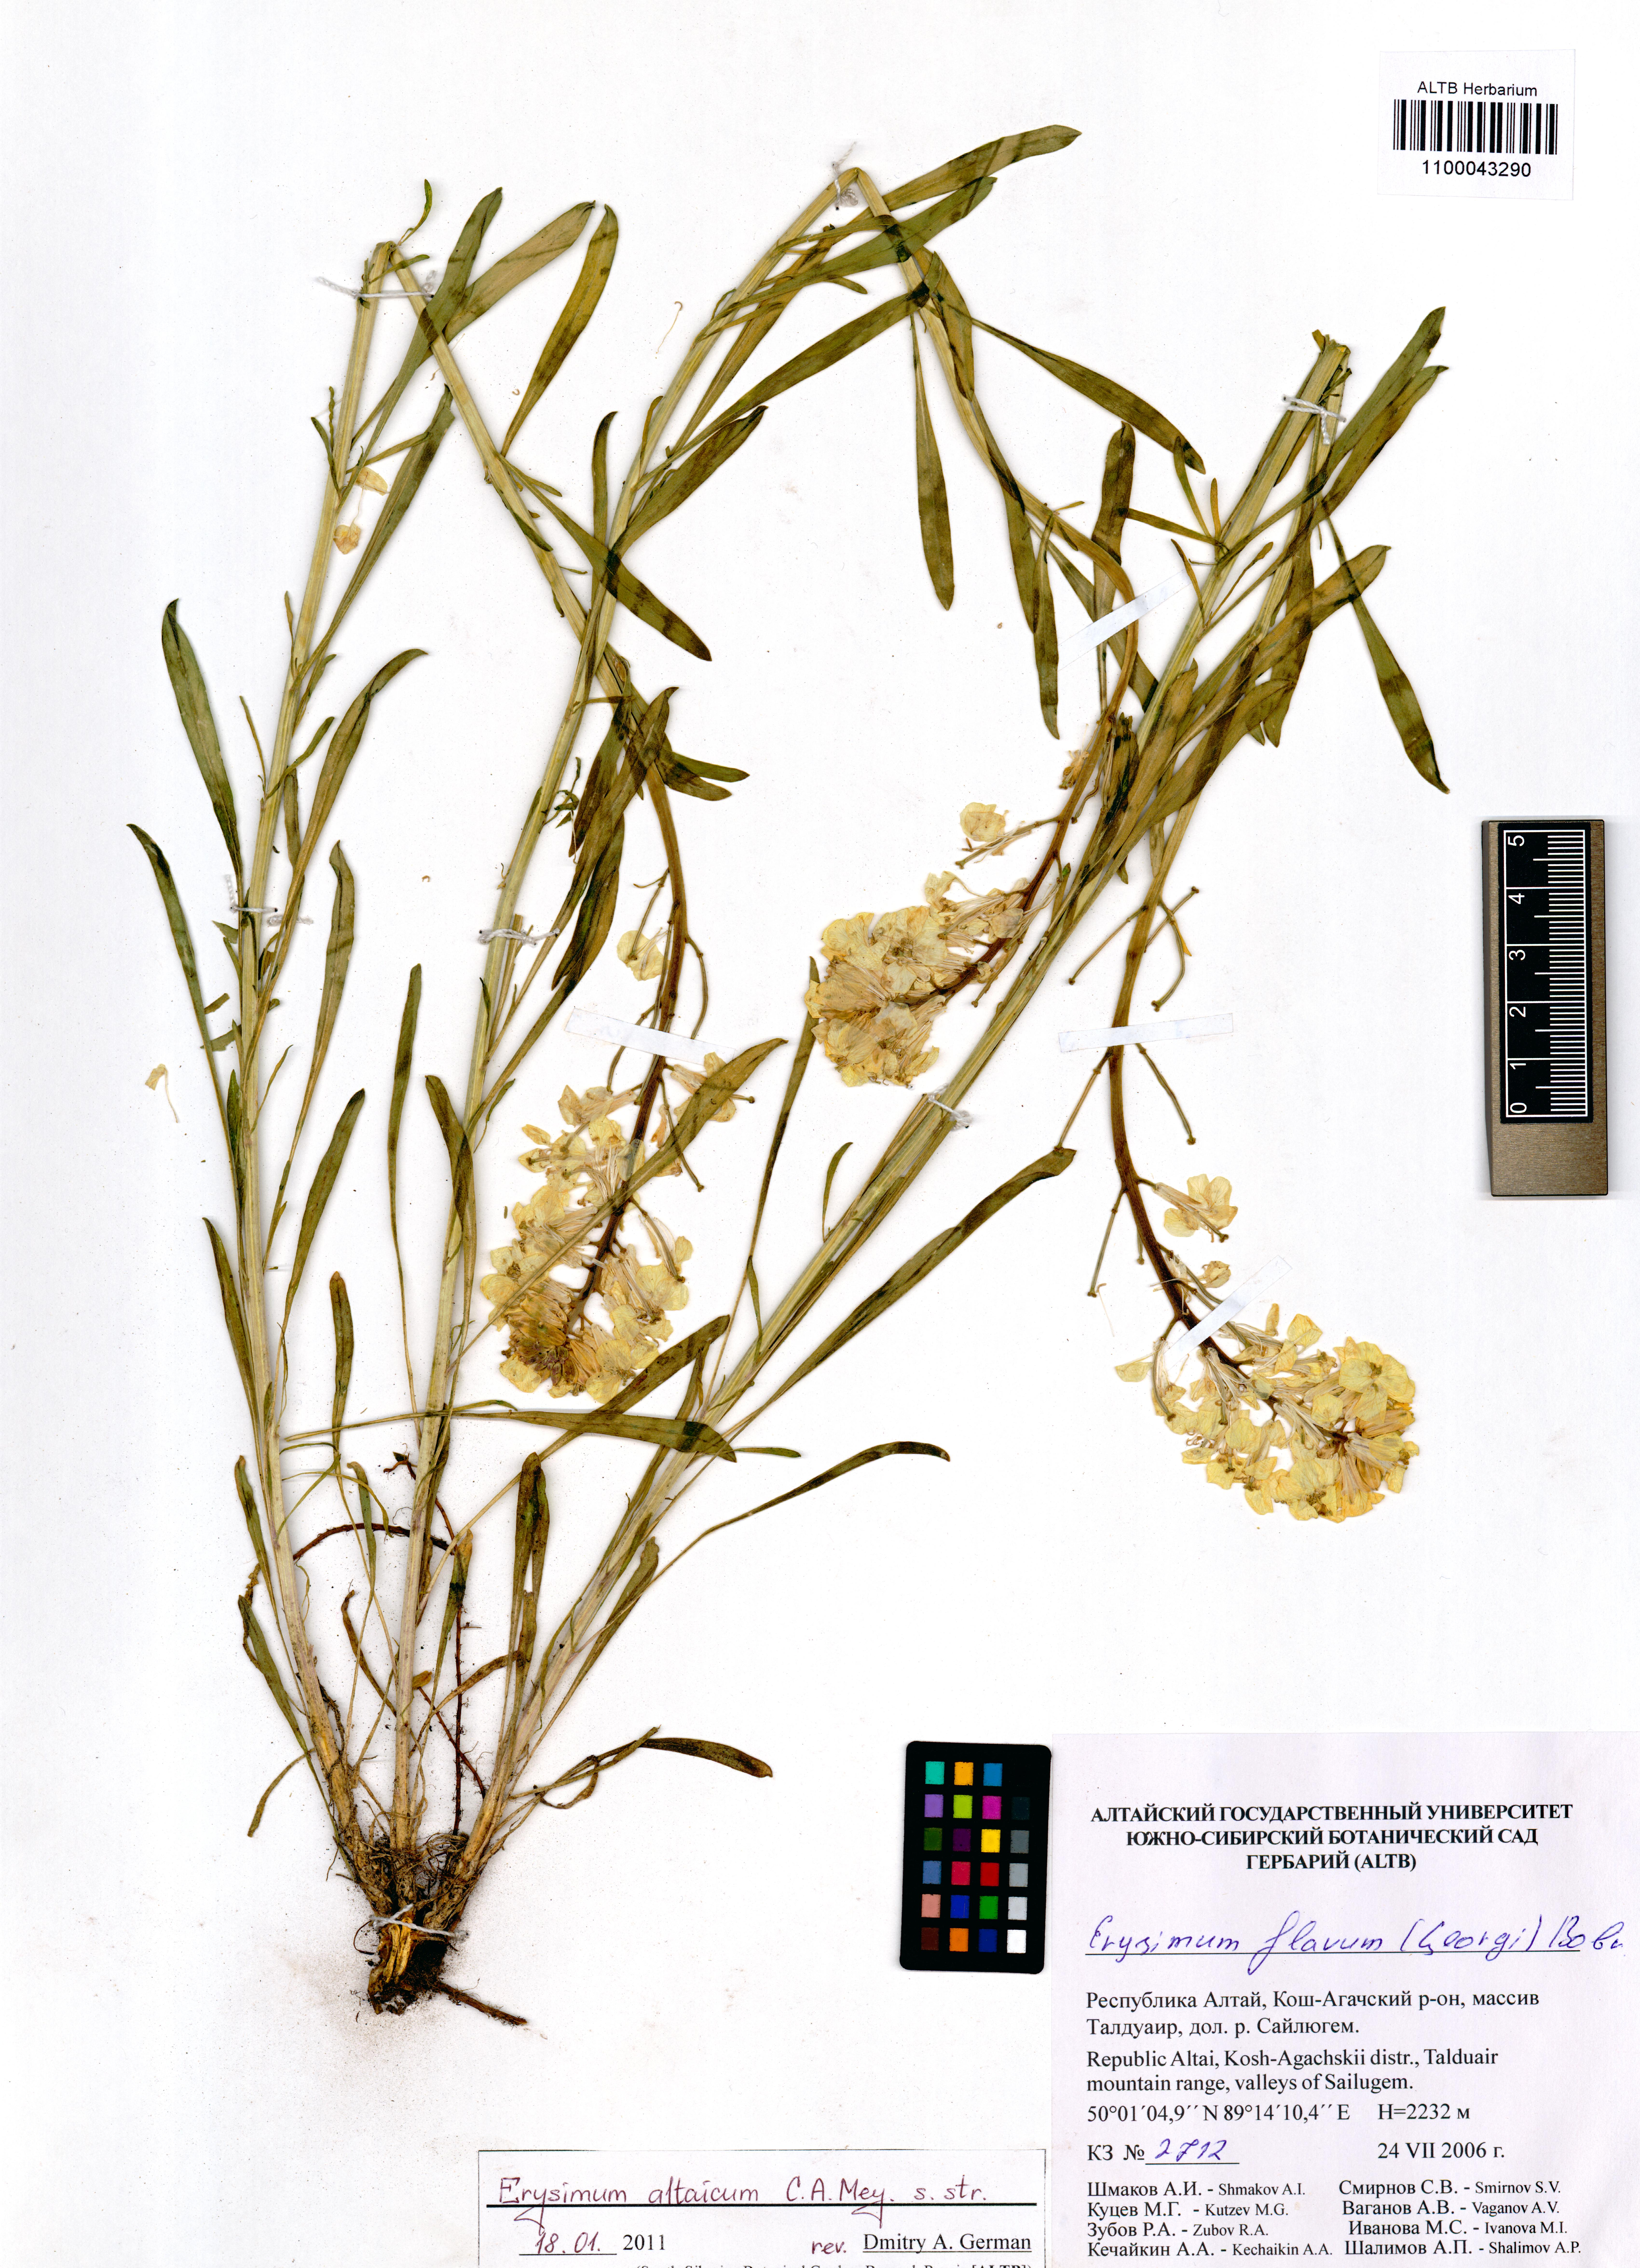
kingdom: Plantae
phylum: Tracheophyta
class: Magnoliopsida
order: Brassicales
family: Brassicaceae
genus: Erysimum
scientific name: Erysimum altaicum
